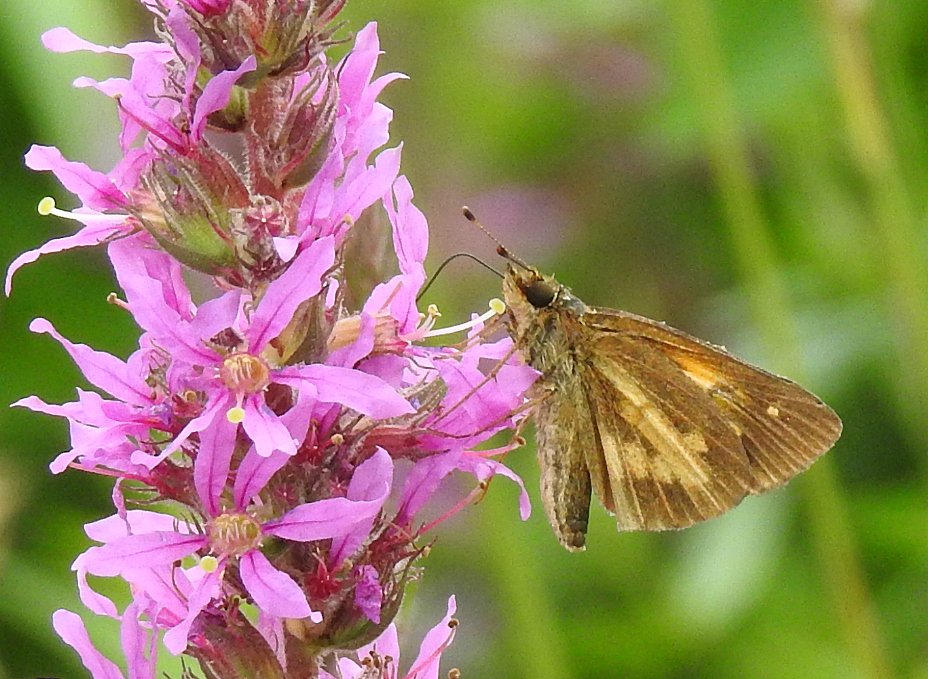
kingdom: Animalia
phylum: Arthropoda
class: Insecta
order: Lepidoptera
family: Hesperiidae
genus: Poanes
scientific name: Poanes viator
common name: Broad-winged Skipper
